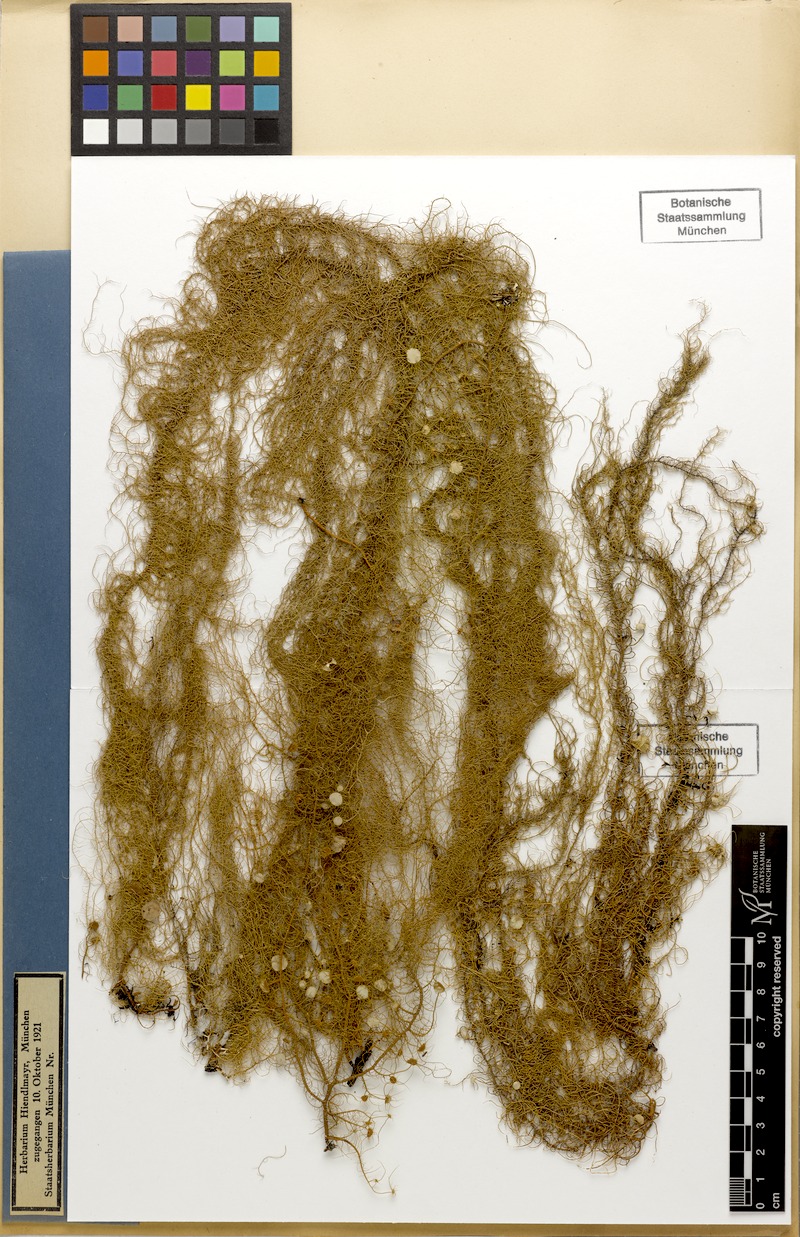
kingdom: Fungi
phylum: Ascomycota
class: Lecanoromycetes
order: Lecanorales
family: Parmeliaceae
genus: Usnea
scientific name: Usnea dasopoga
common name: Fishbone beard lichen
